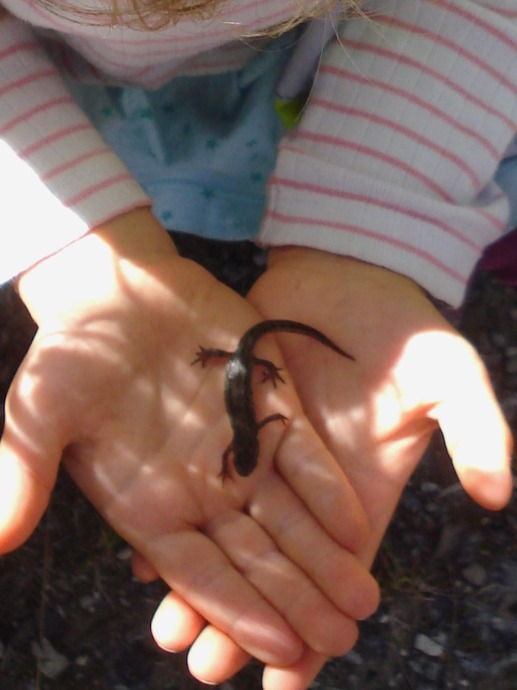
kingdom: Animalia
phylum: Chordata
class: Amphibia
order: Caudata
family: Salamandridae
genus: Lissotriton
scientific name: Lissotriton vulgaris
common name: Lille vandsalamander
